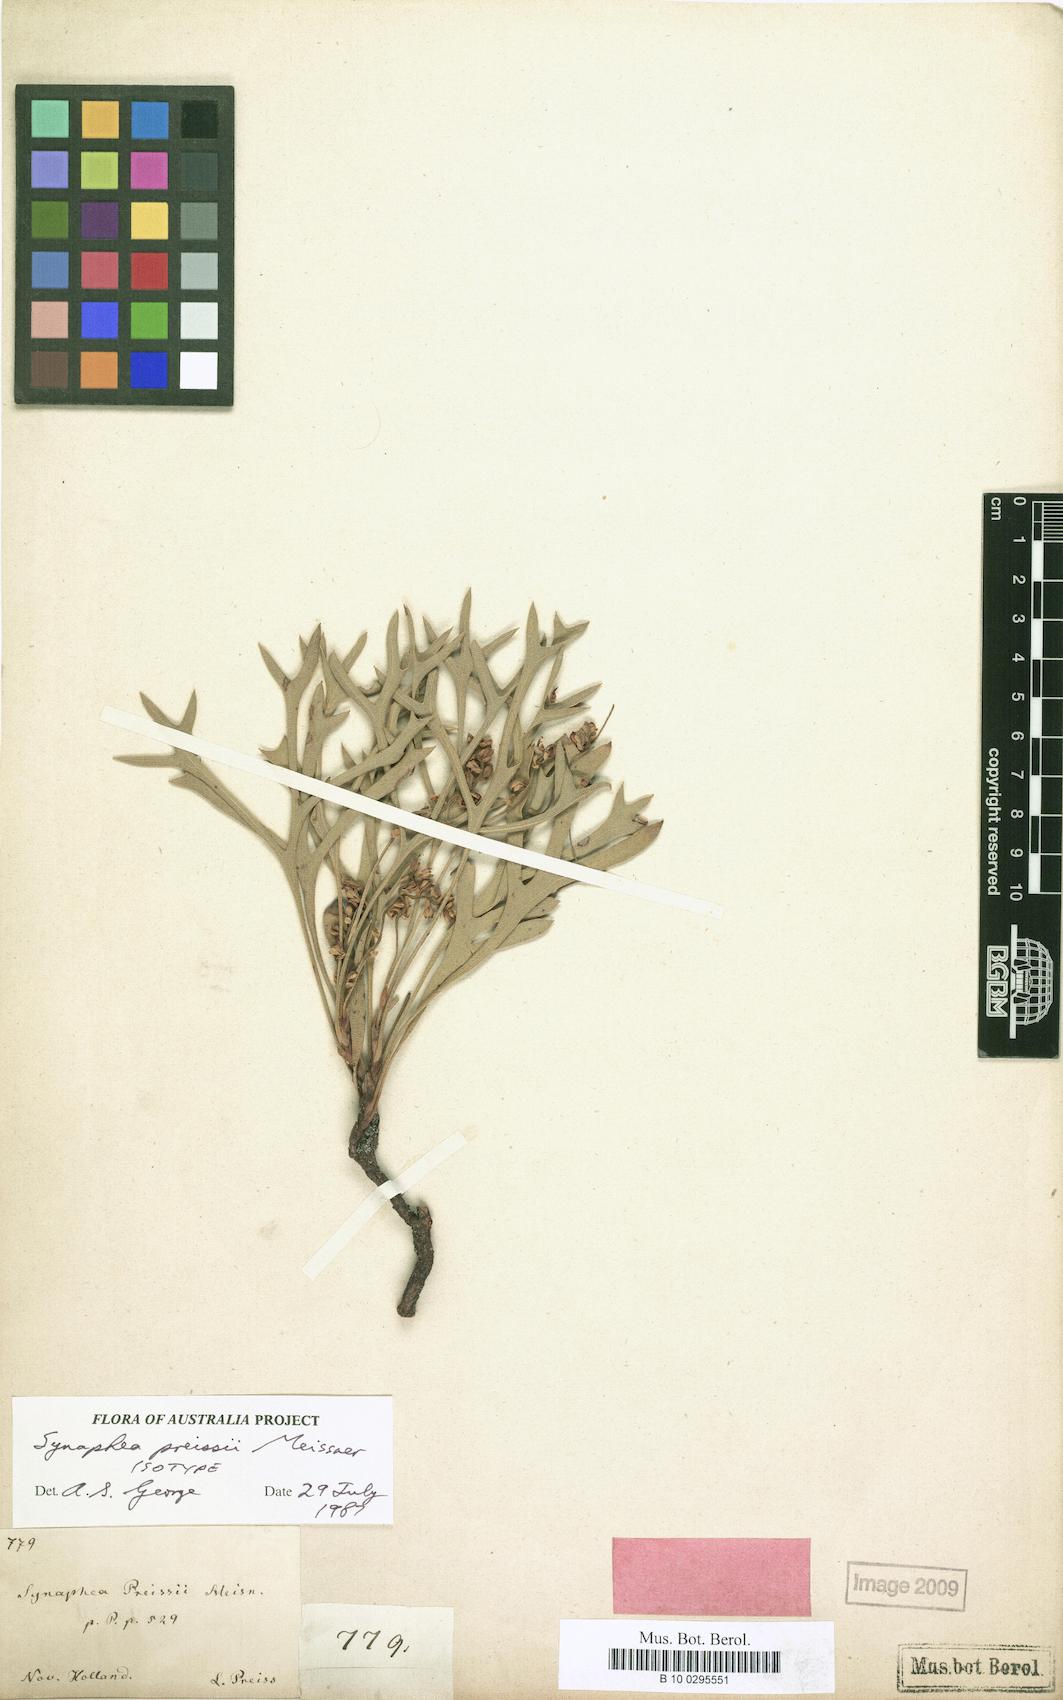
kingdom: Plantae
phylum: Tracheophyta
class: Magnoliopsida
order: Proteales
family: Proteaceae
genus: Synaphea
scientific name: Synaphea preissii
